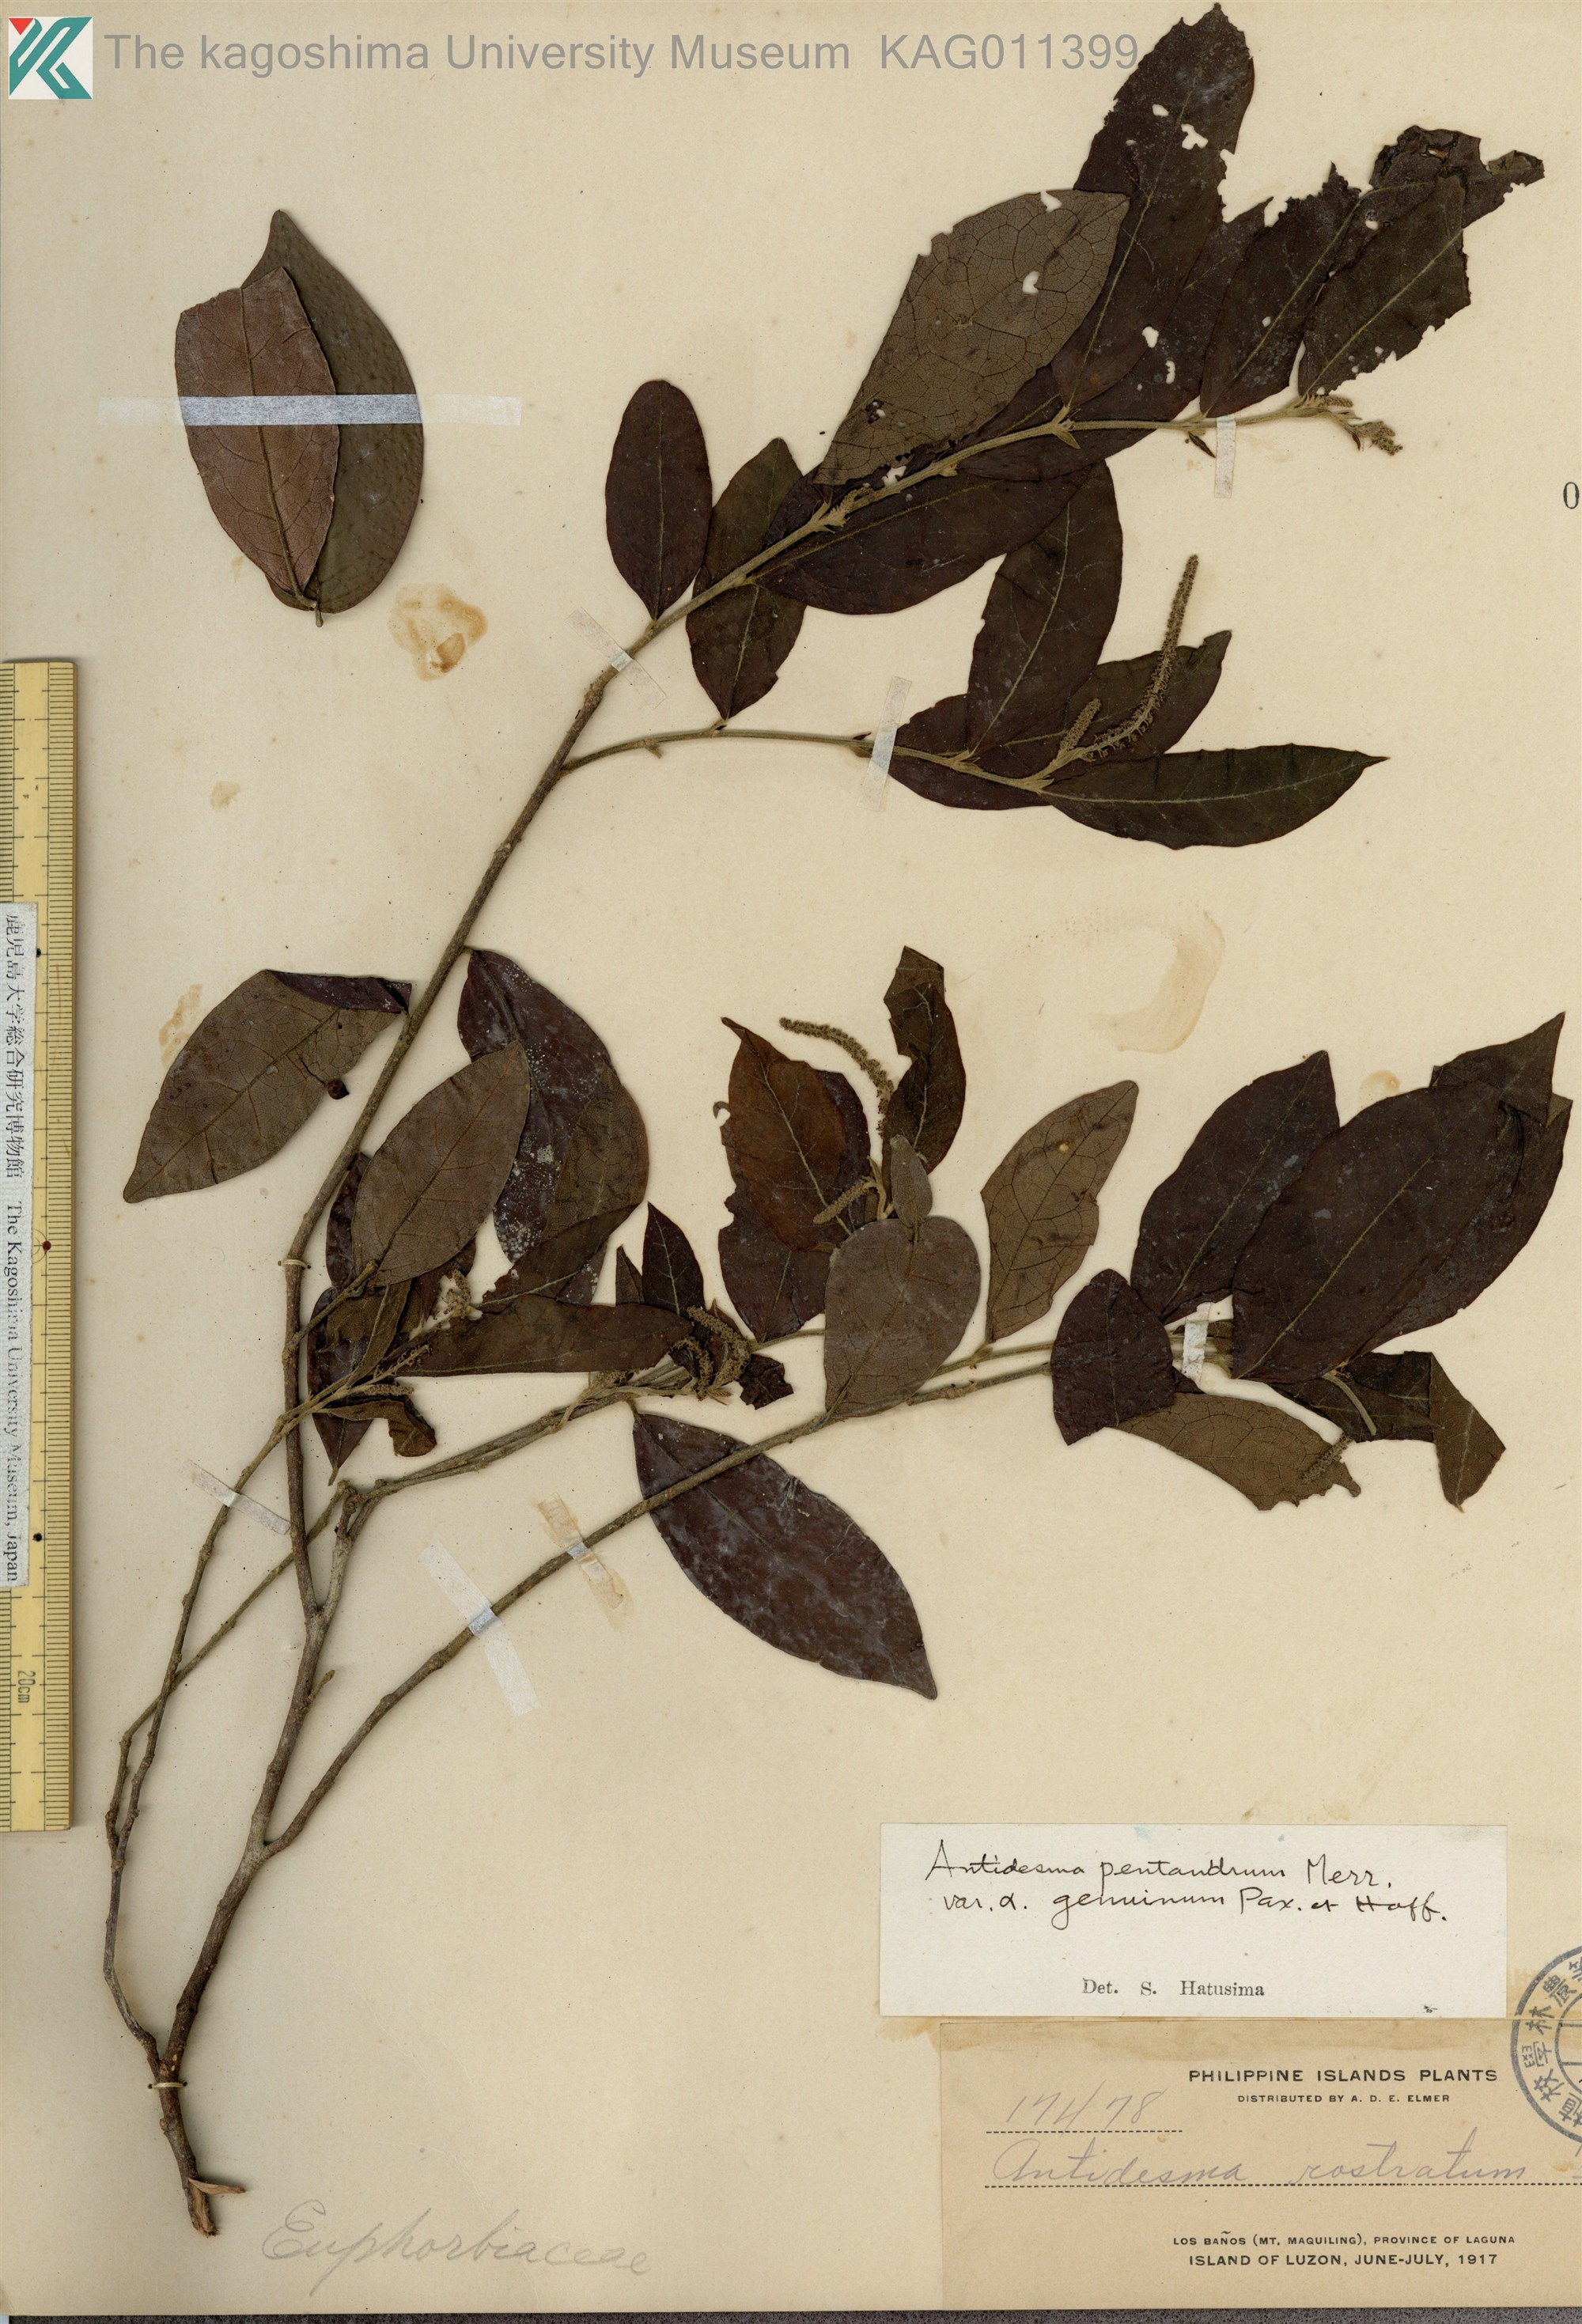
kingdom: Plantae
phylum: Tracheophyta
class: Magnoliopsida
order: Malpighiales
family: Phyllanthaceae
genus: Antidesma
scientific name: Antidesma montanum
